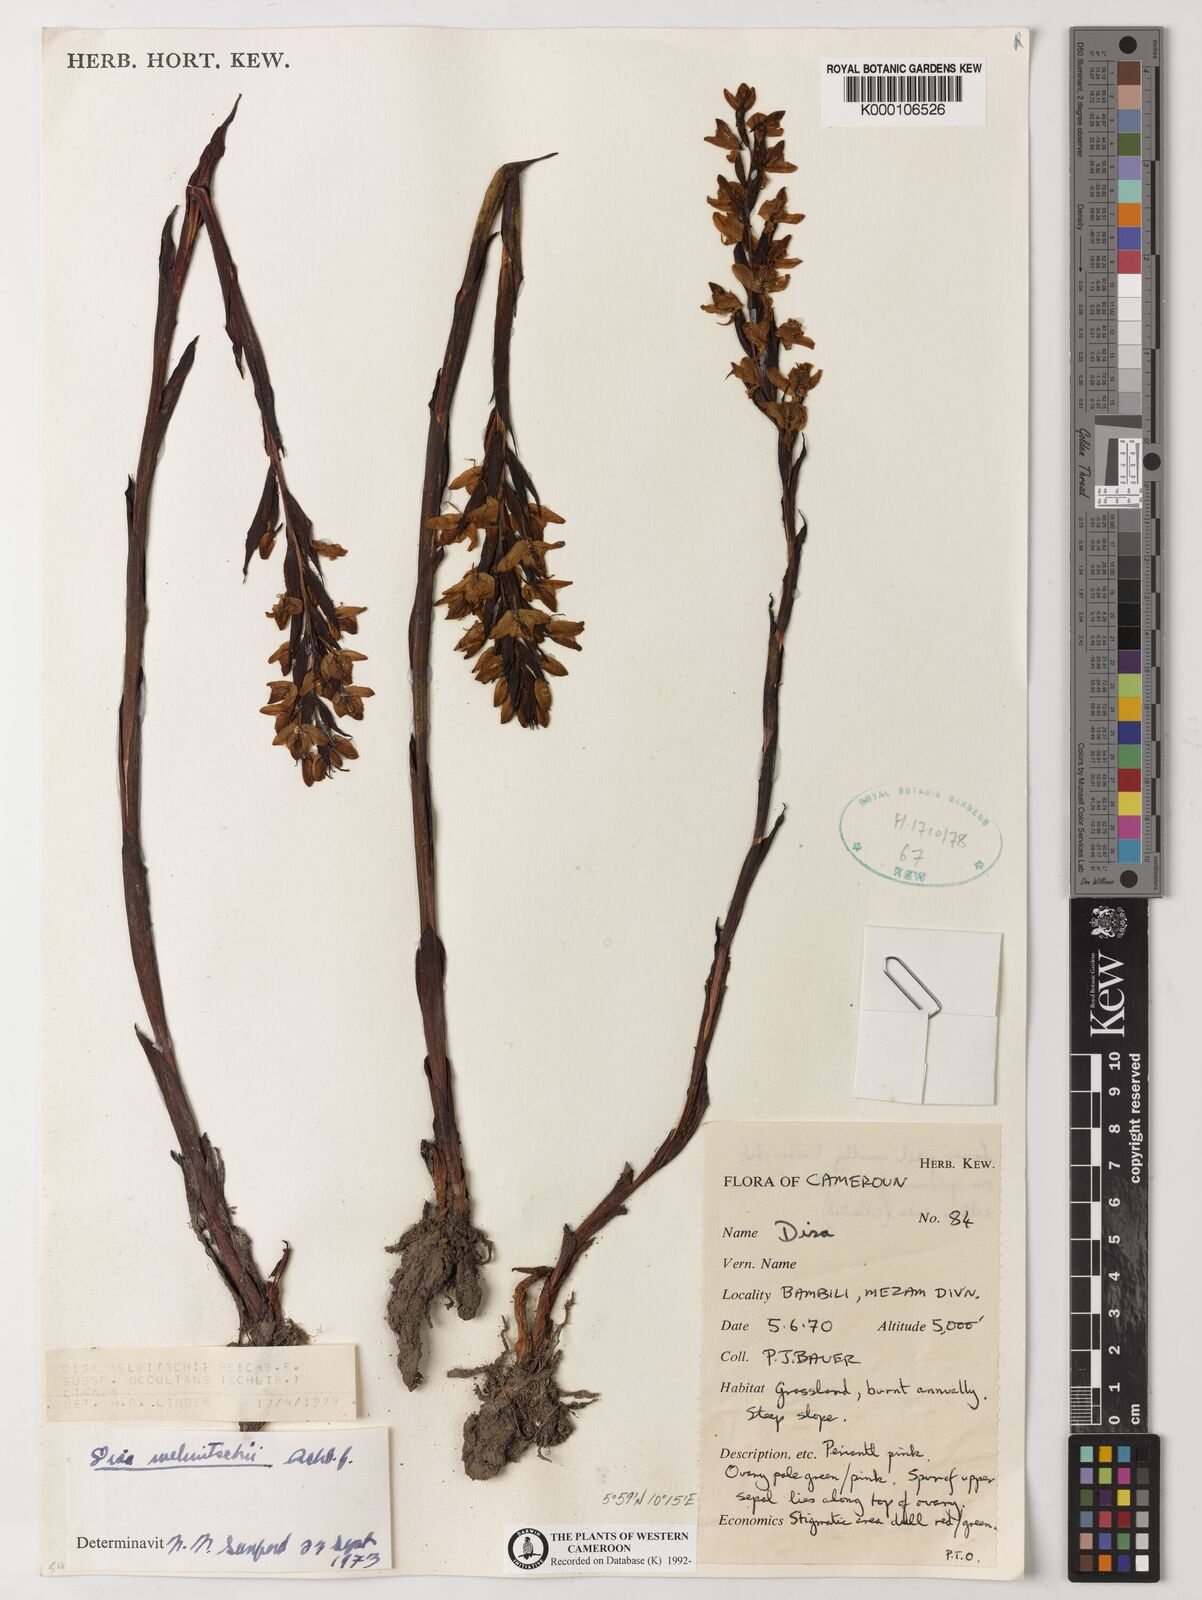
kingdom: Plantae
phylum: Tracheophyta
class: Liliopsida
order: Asparagales
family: Orchidaceae
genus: Disa
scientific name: Disa welwitschii
